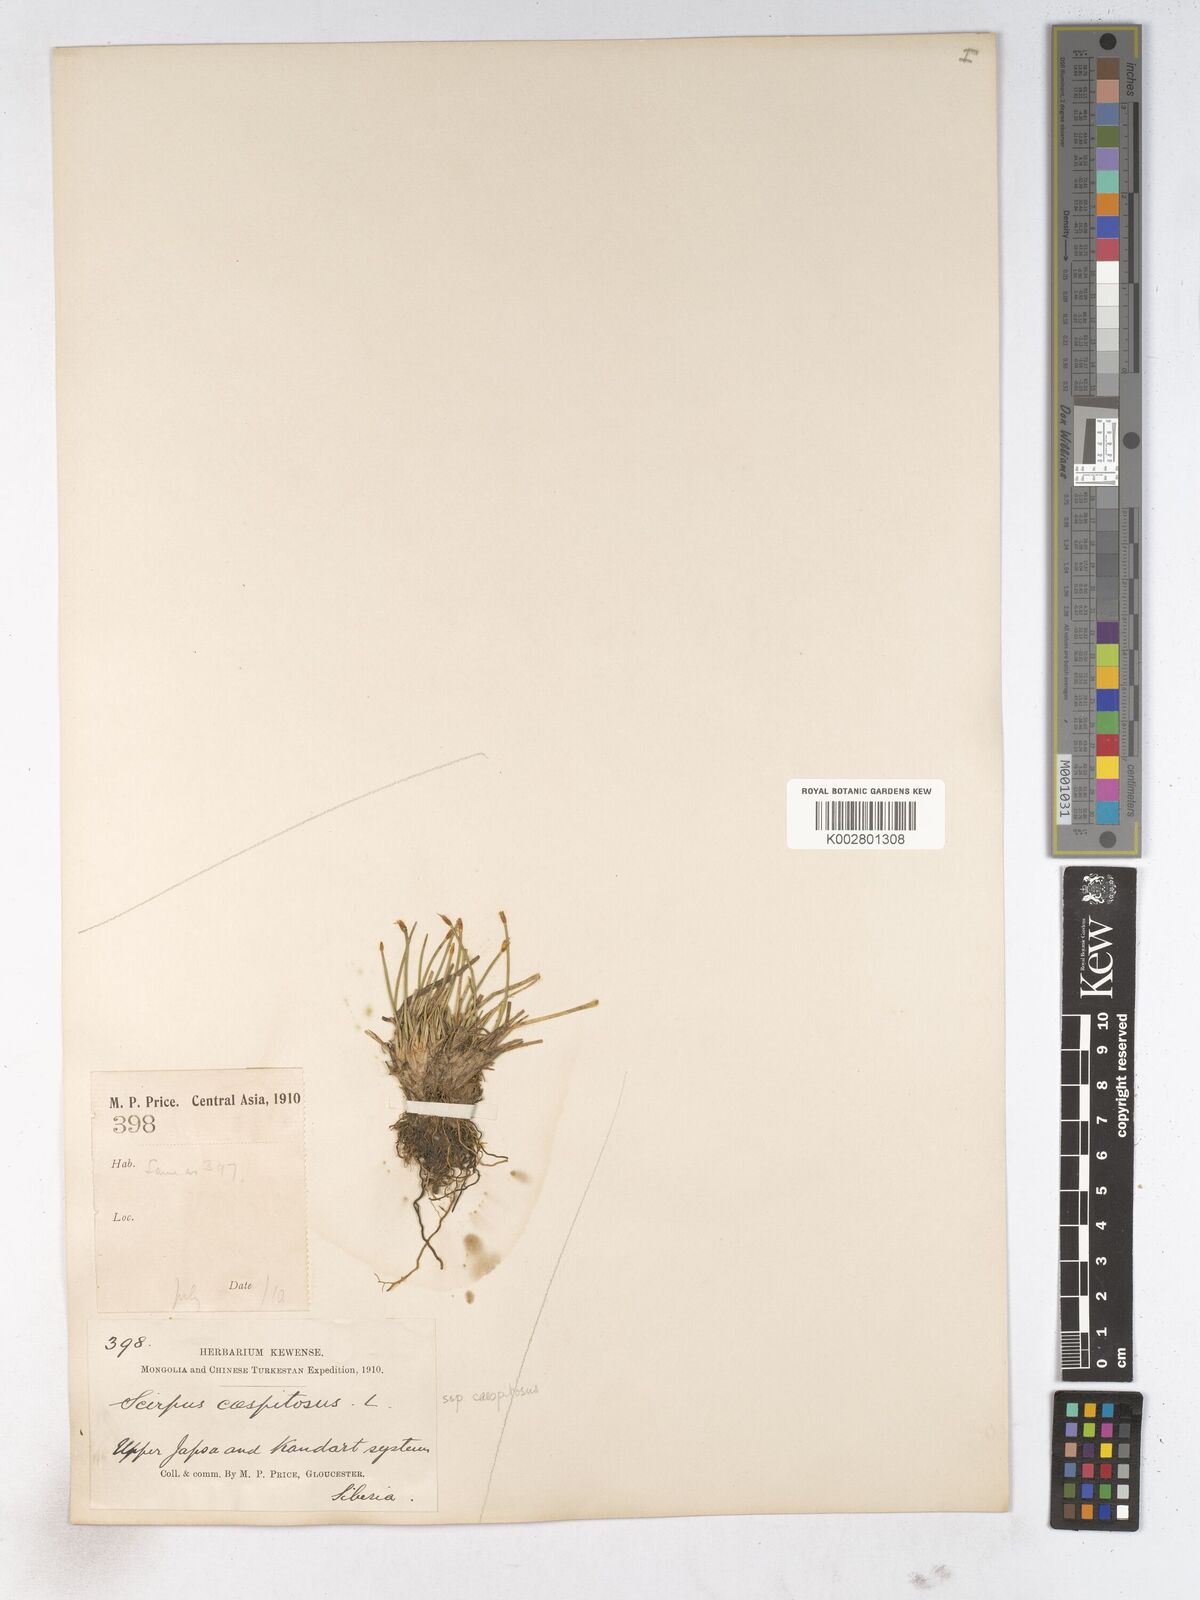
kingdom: Plantae
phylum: Tracheophyta
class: Liliopsida
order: Poales
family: Cyperaceae
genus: Trichophorum
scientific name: Trichophorum cespitosum
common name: Cespitose bulrush
